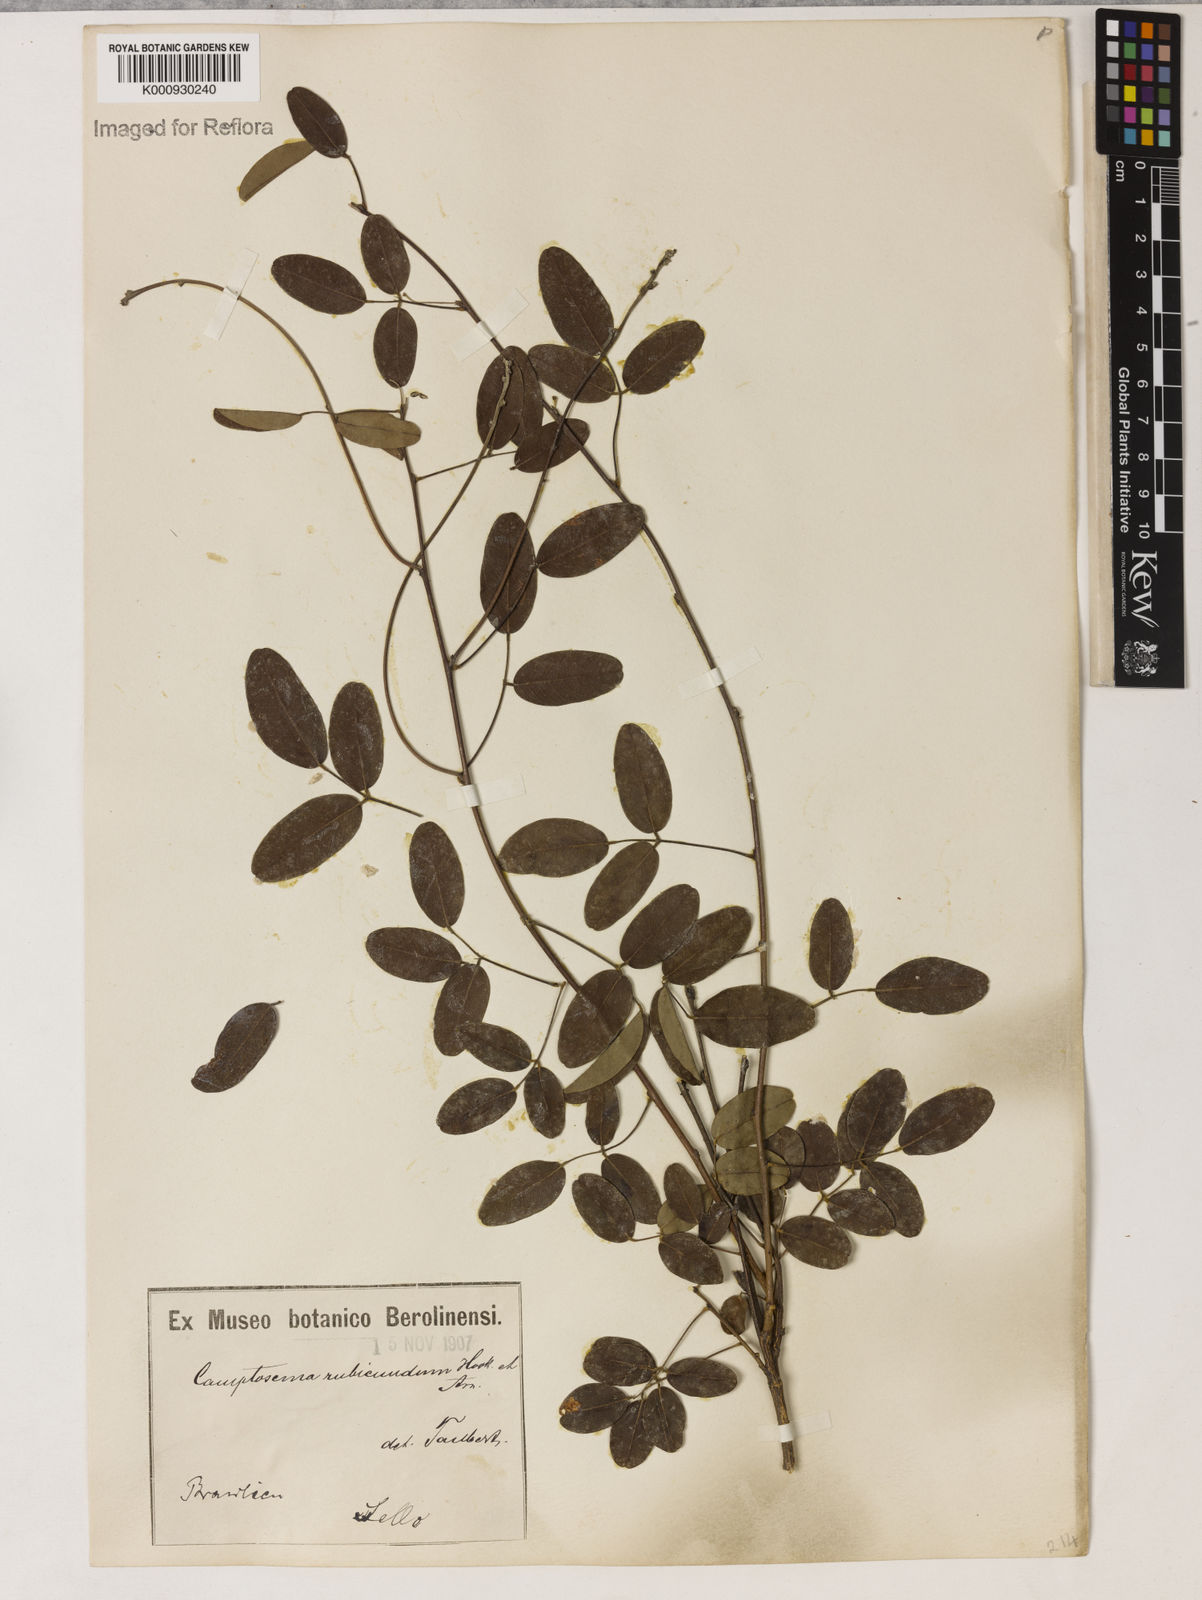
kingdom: Plantae
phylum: Tracheophyta
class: Magnoliopsida
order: Fabales
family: Fabaceae
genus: Camptosema
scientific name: Camptosema rubicundum
